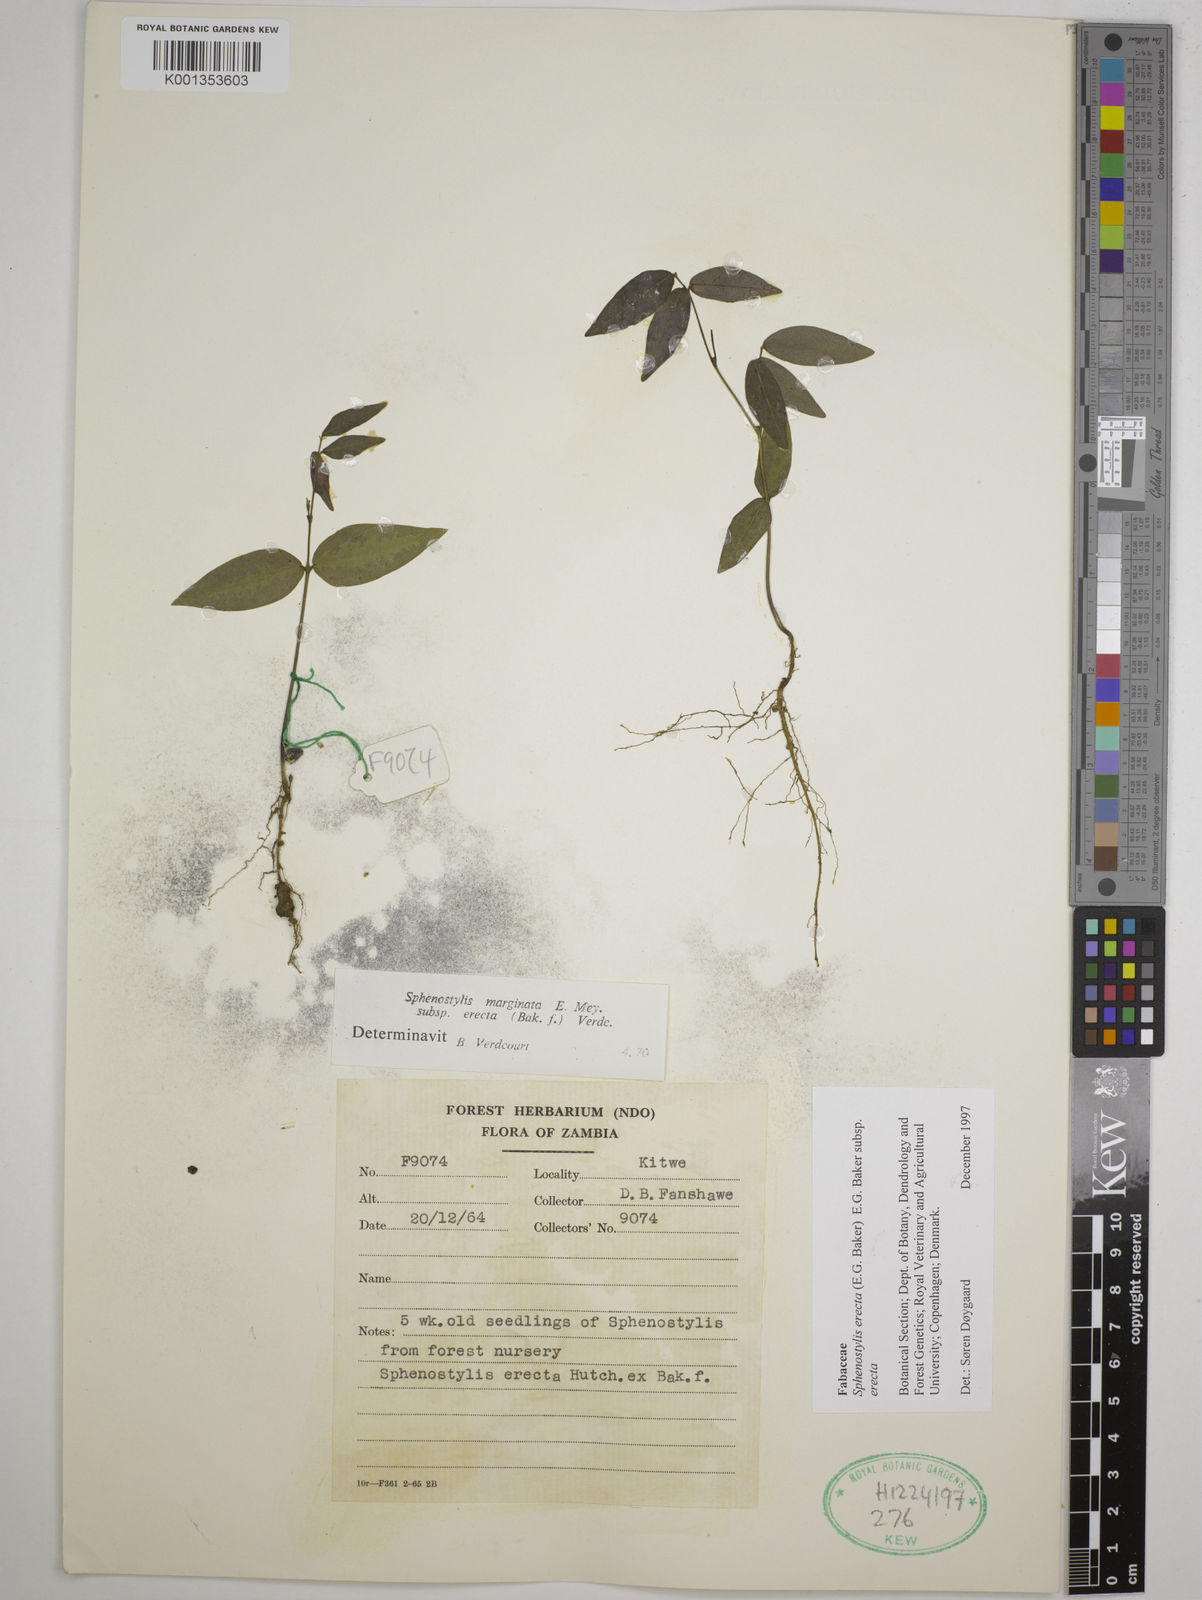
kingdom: Plantae
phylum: Tracheophyta
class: Magnoliopsida
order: Fabales
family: Fabaceae
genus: Sphenostylis
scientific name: Sphenostylis erecta
